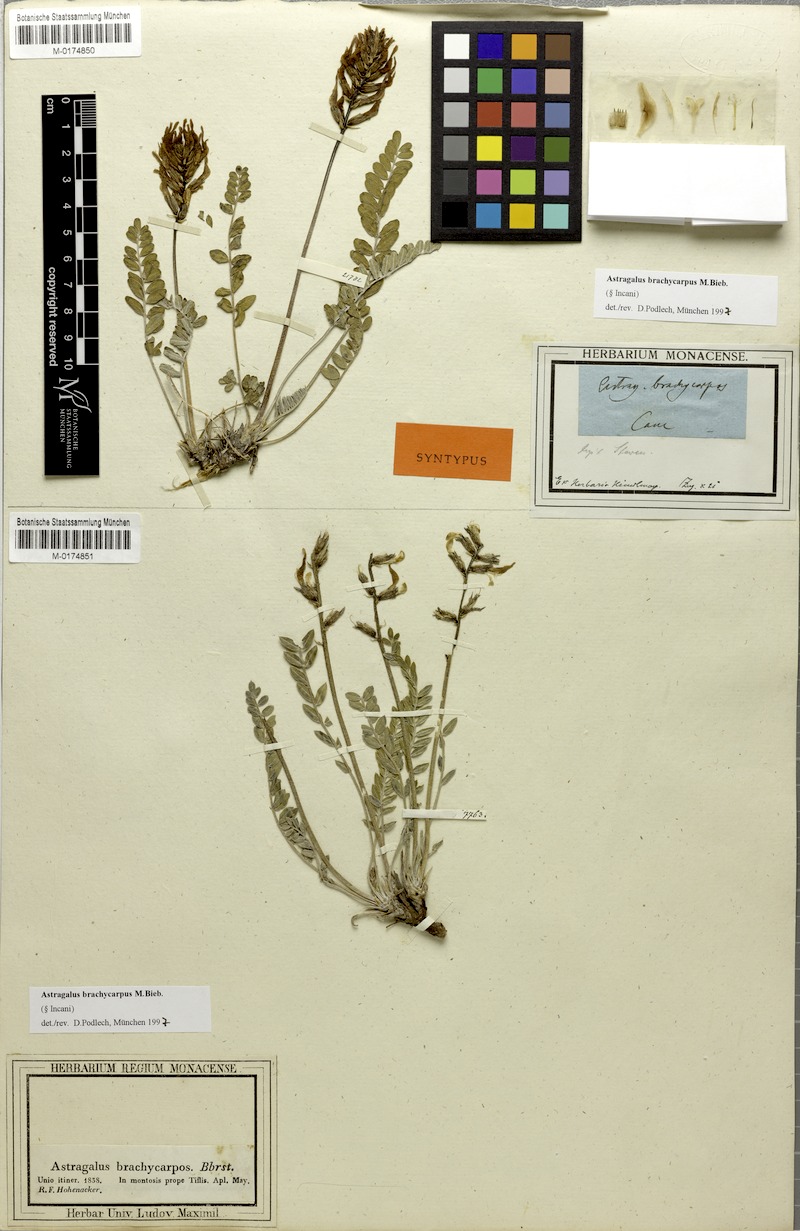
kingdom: Plantae
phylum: Tracheophyta
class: Magnoliopsida
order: Fabales
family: Fabaceae
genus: Astragalus
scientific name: Astragalus brachycarpus
